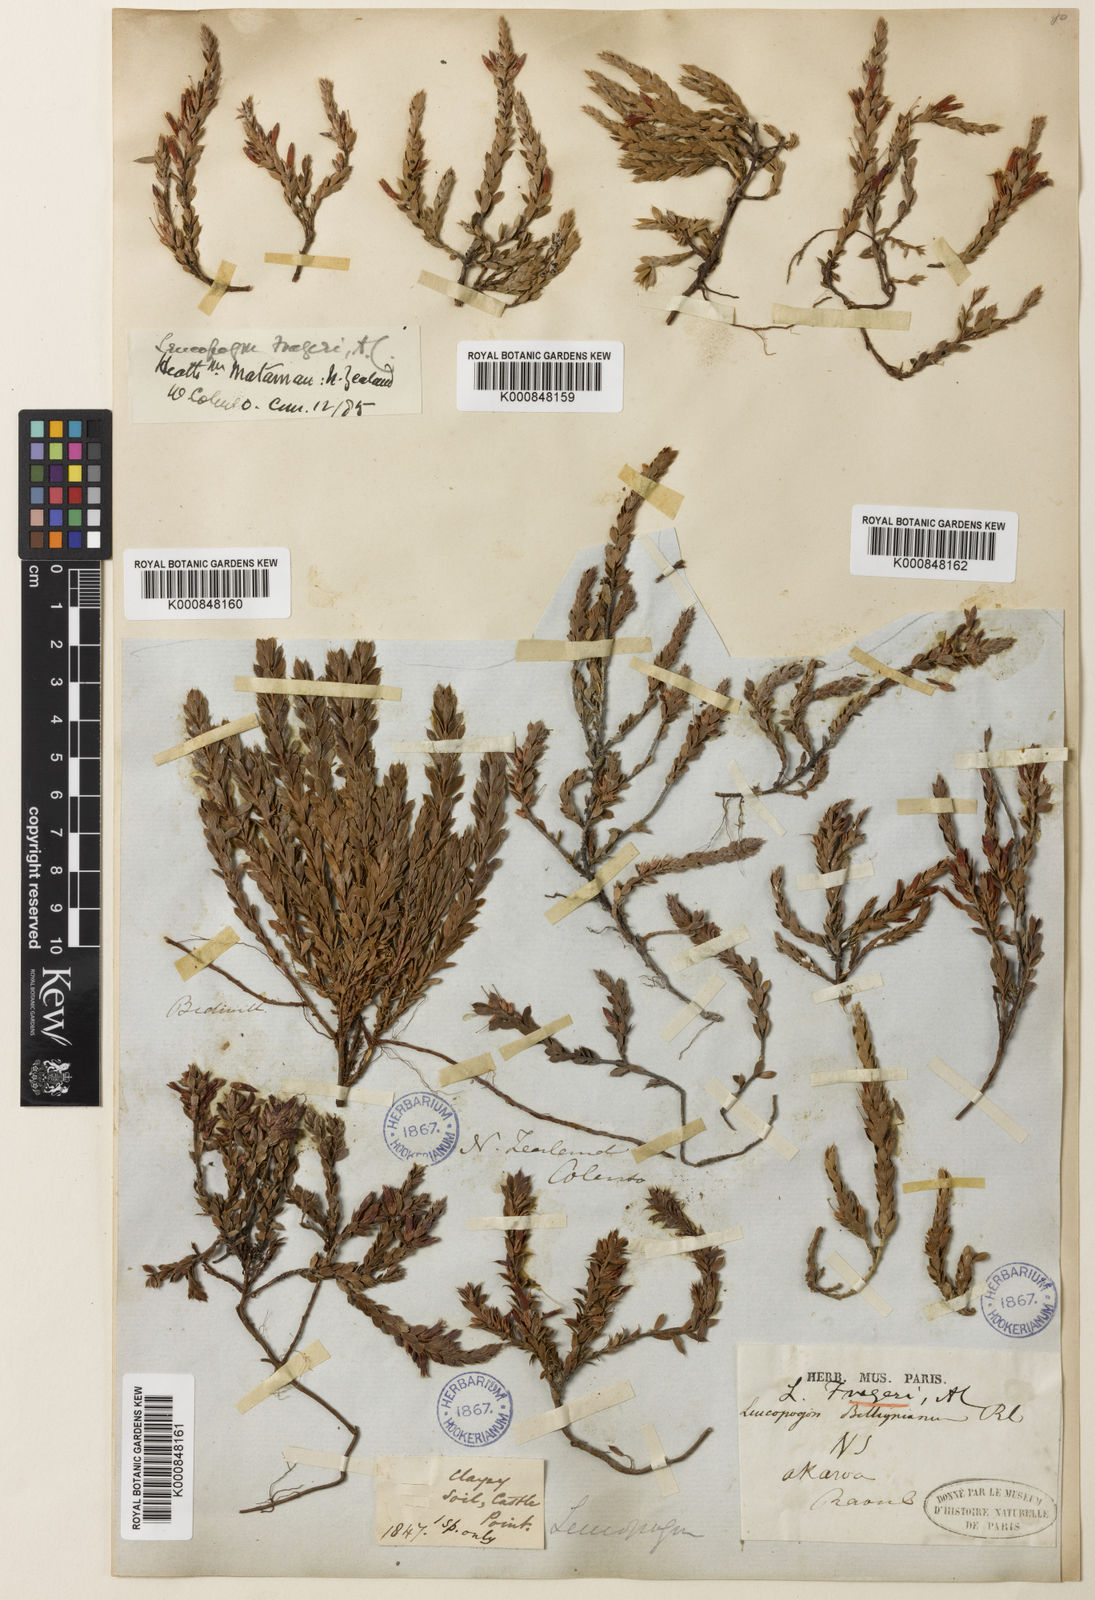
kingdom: Plantae
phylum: Tracheophyta
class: Magnoliopsida
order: Ericales
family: Ericaceae
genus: Styphelia
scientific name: Styphelia nesophila
